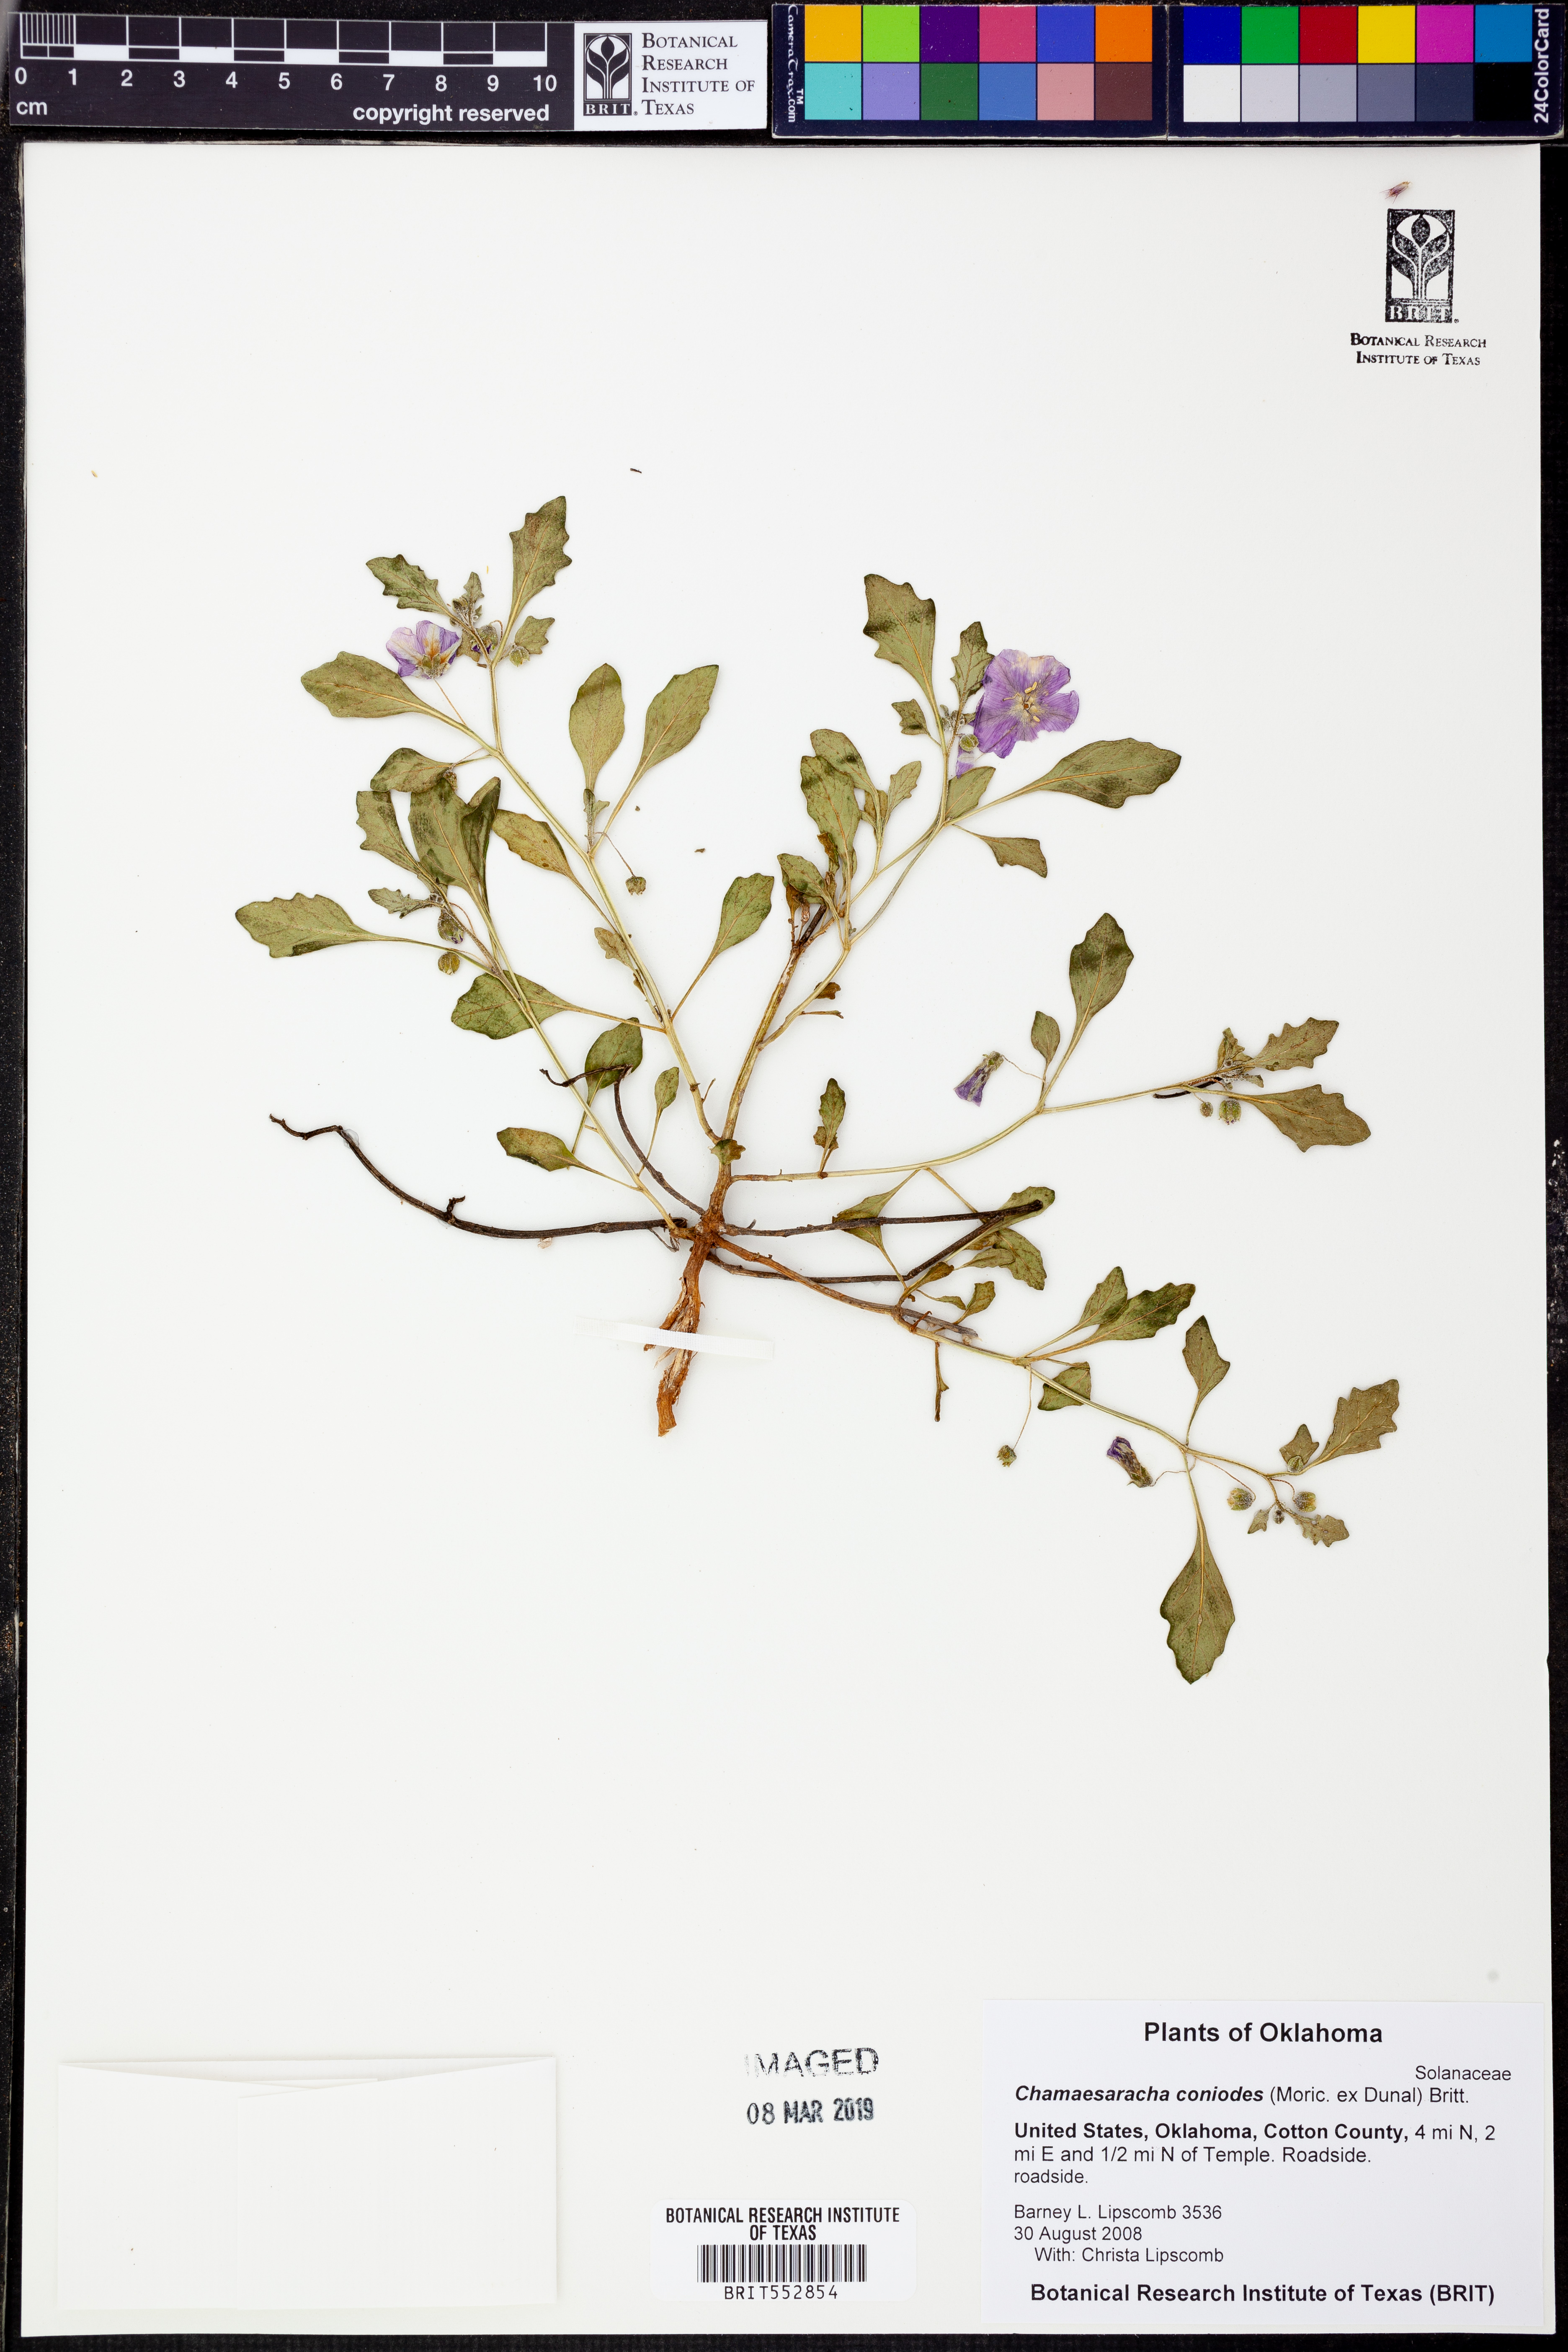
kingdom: Plantae
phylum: Tracheophyta
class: Magnoliopsida
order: Solanales
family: Solanaceae
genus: Chamaesaracha
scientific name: Chamaesaracha coniodes
